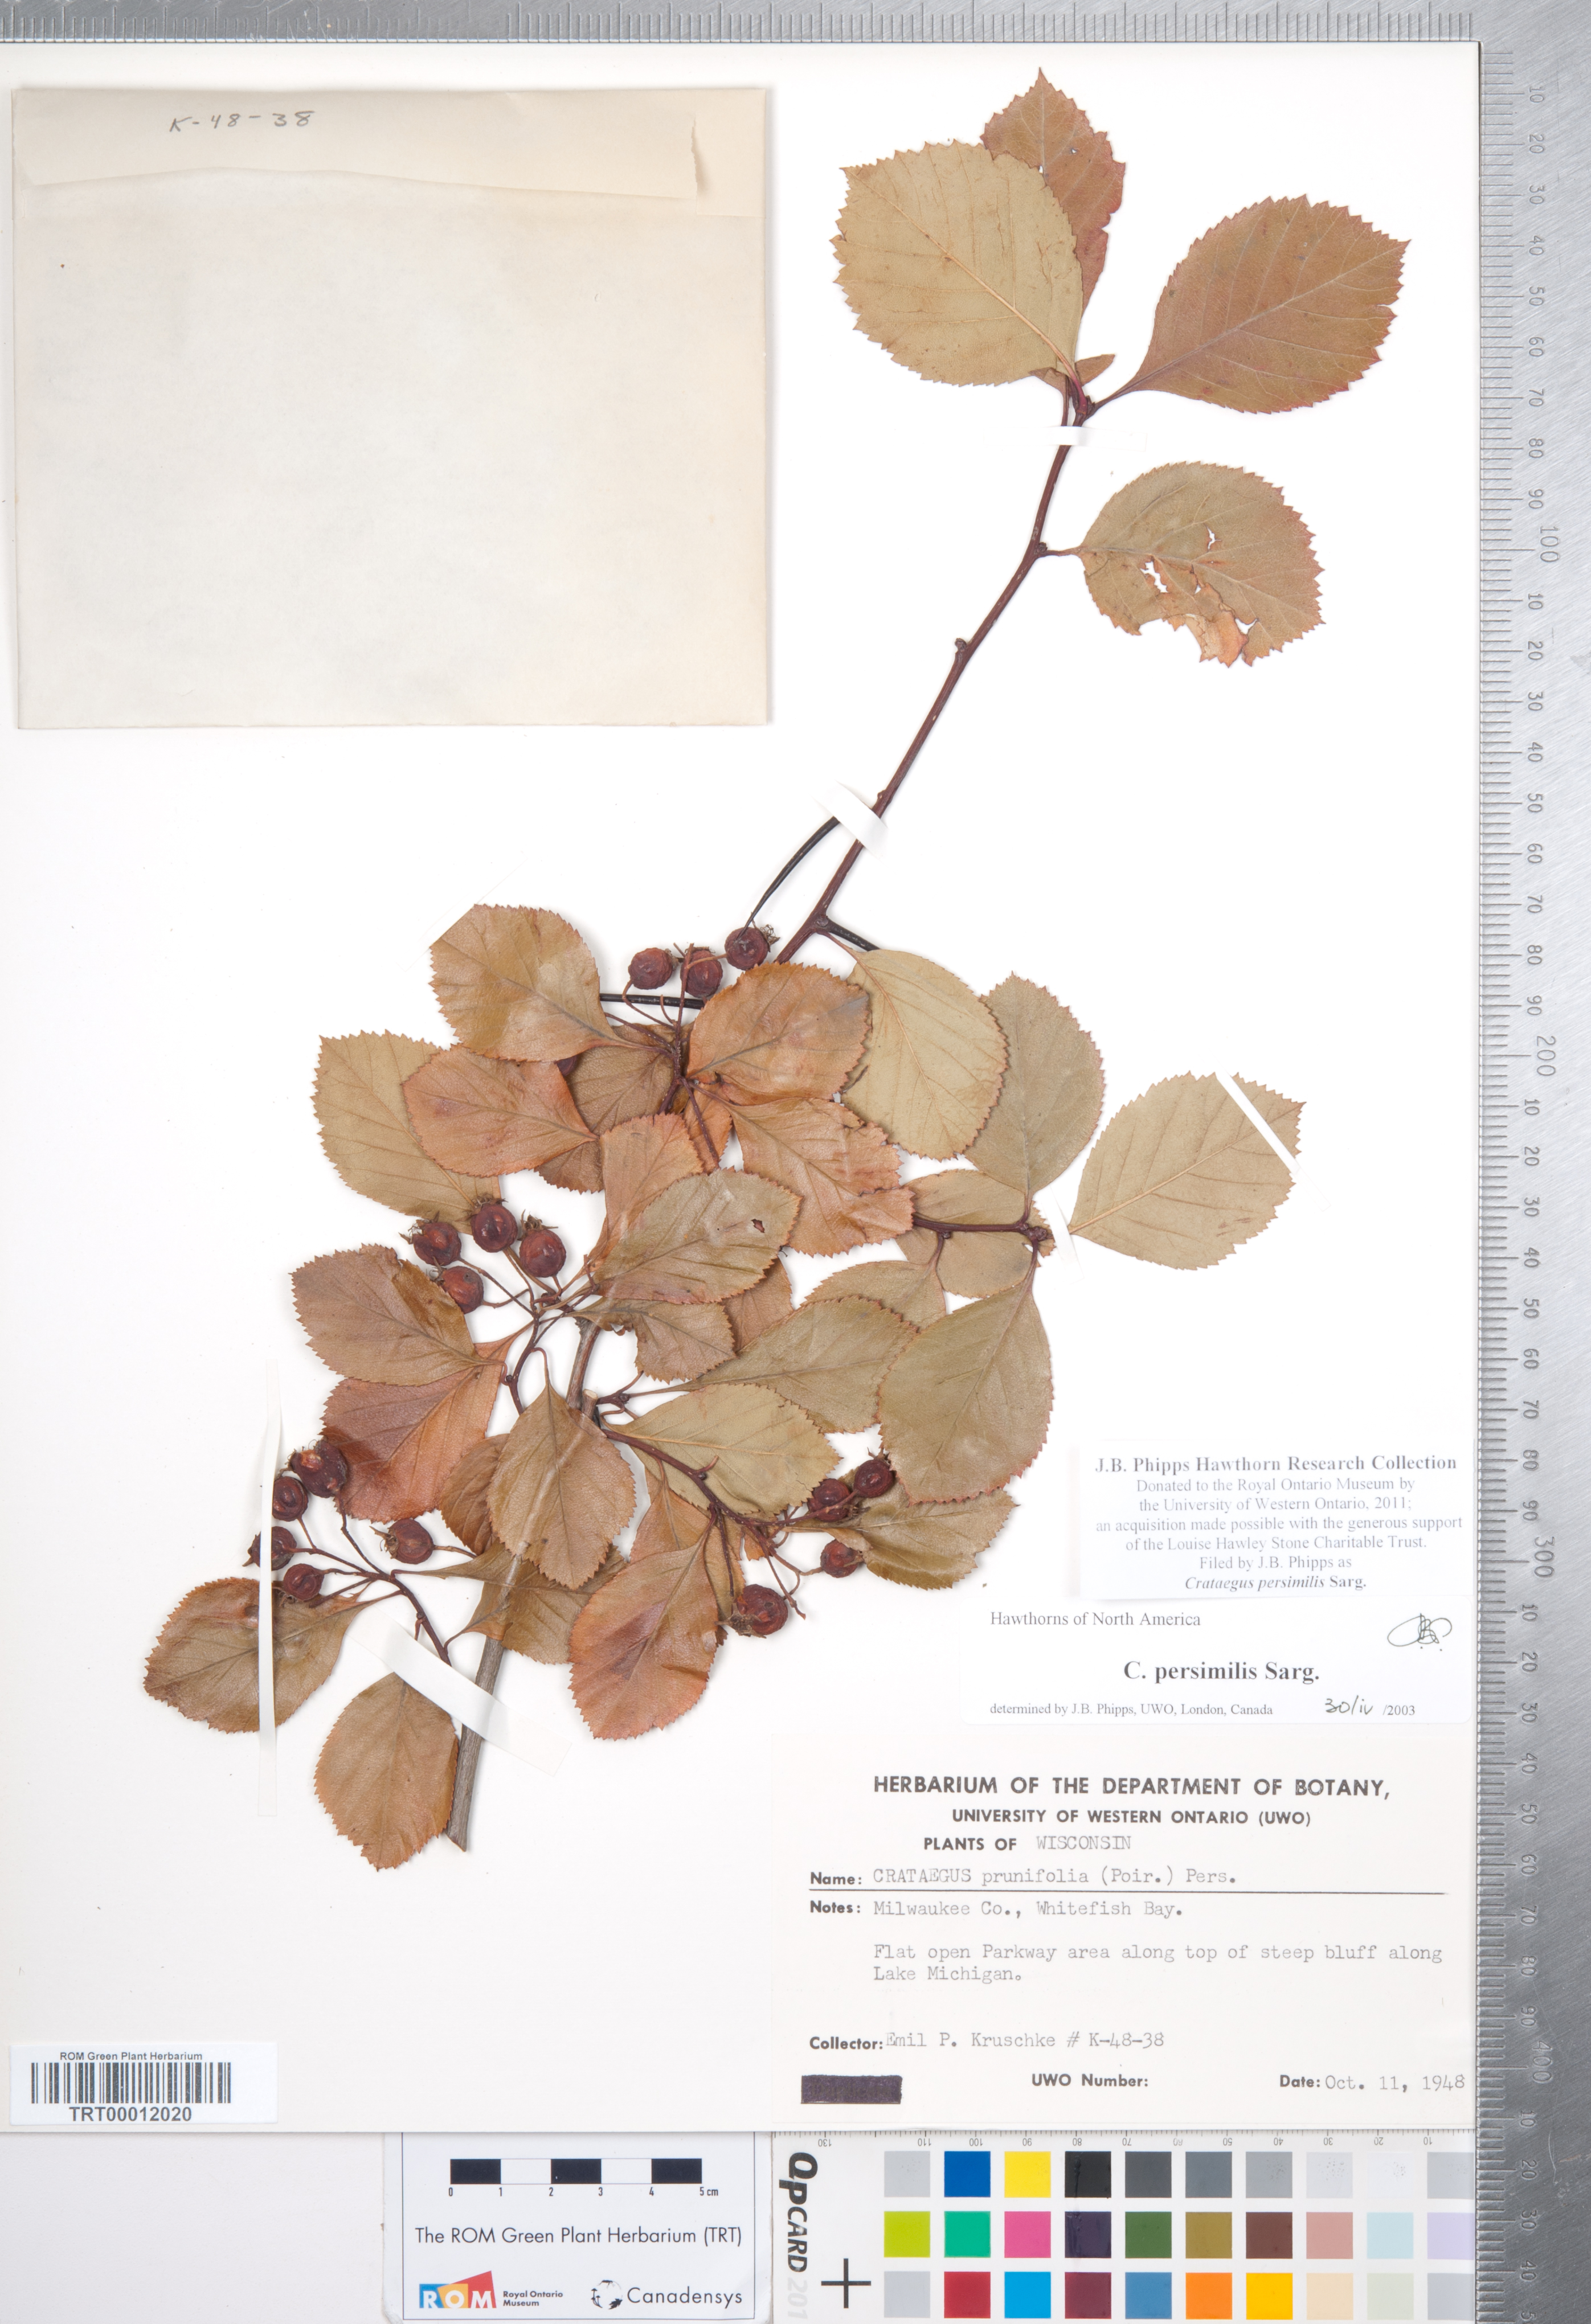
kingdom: Plantae
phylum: Tracheophyta
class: Magnoliopsida
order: Rosales
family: Rosaceae
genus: Crataegus
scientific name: Crataegus persimilis
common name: Broad-leaved cockspurthorn
